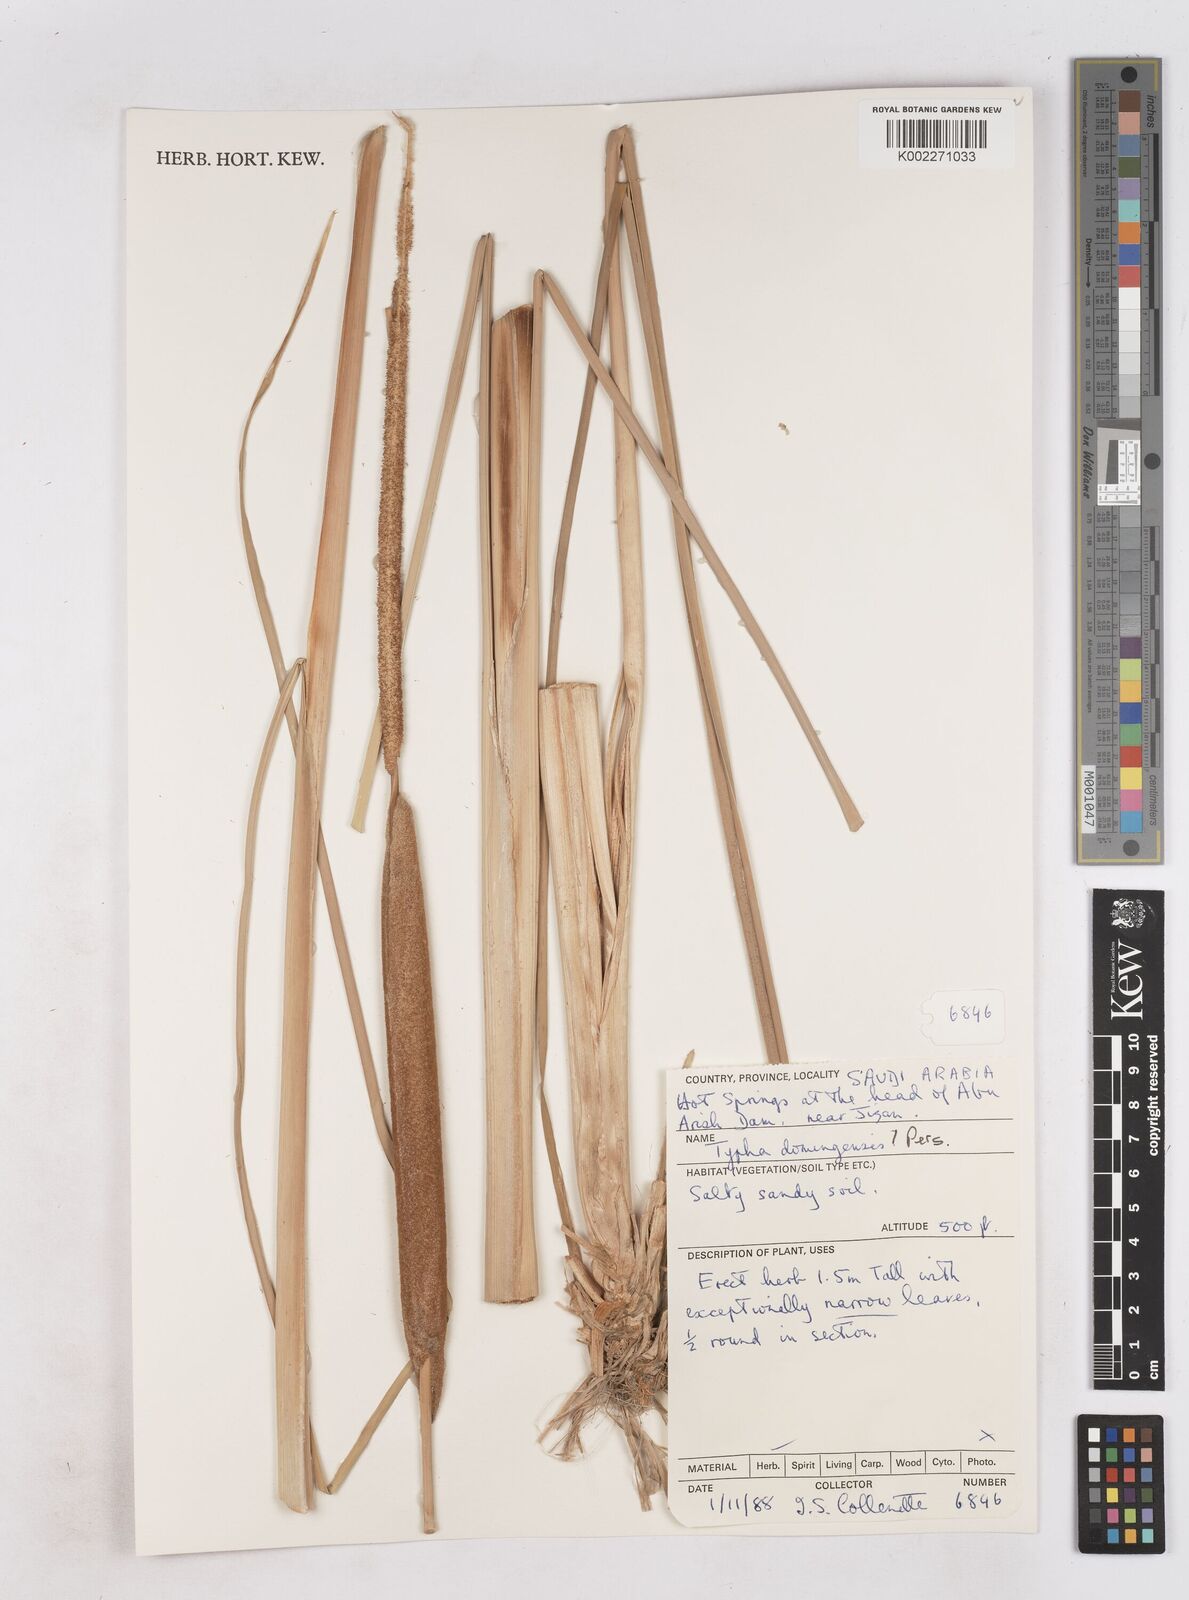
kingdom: Plantae
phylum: Tracheophyta
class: Liliopsida
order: Poales
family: Typhaceae
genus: Typha
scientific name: Typha domingensis
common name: Southern cattail
